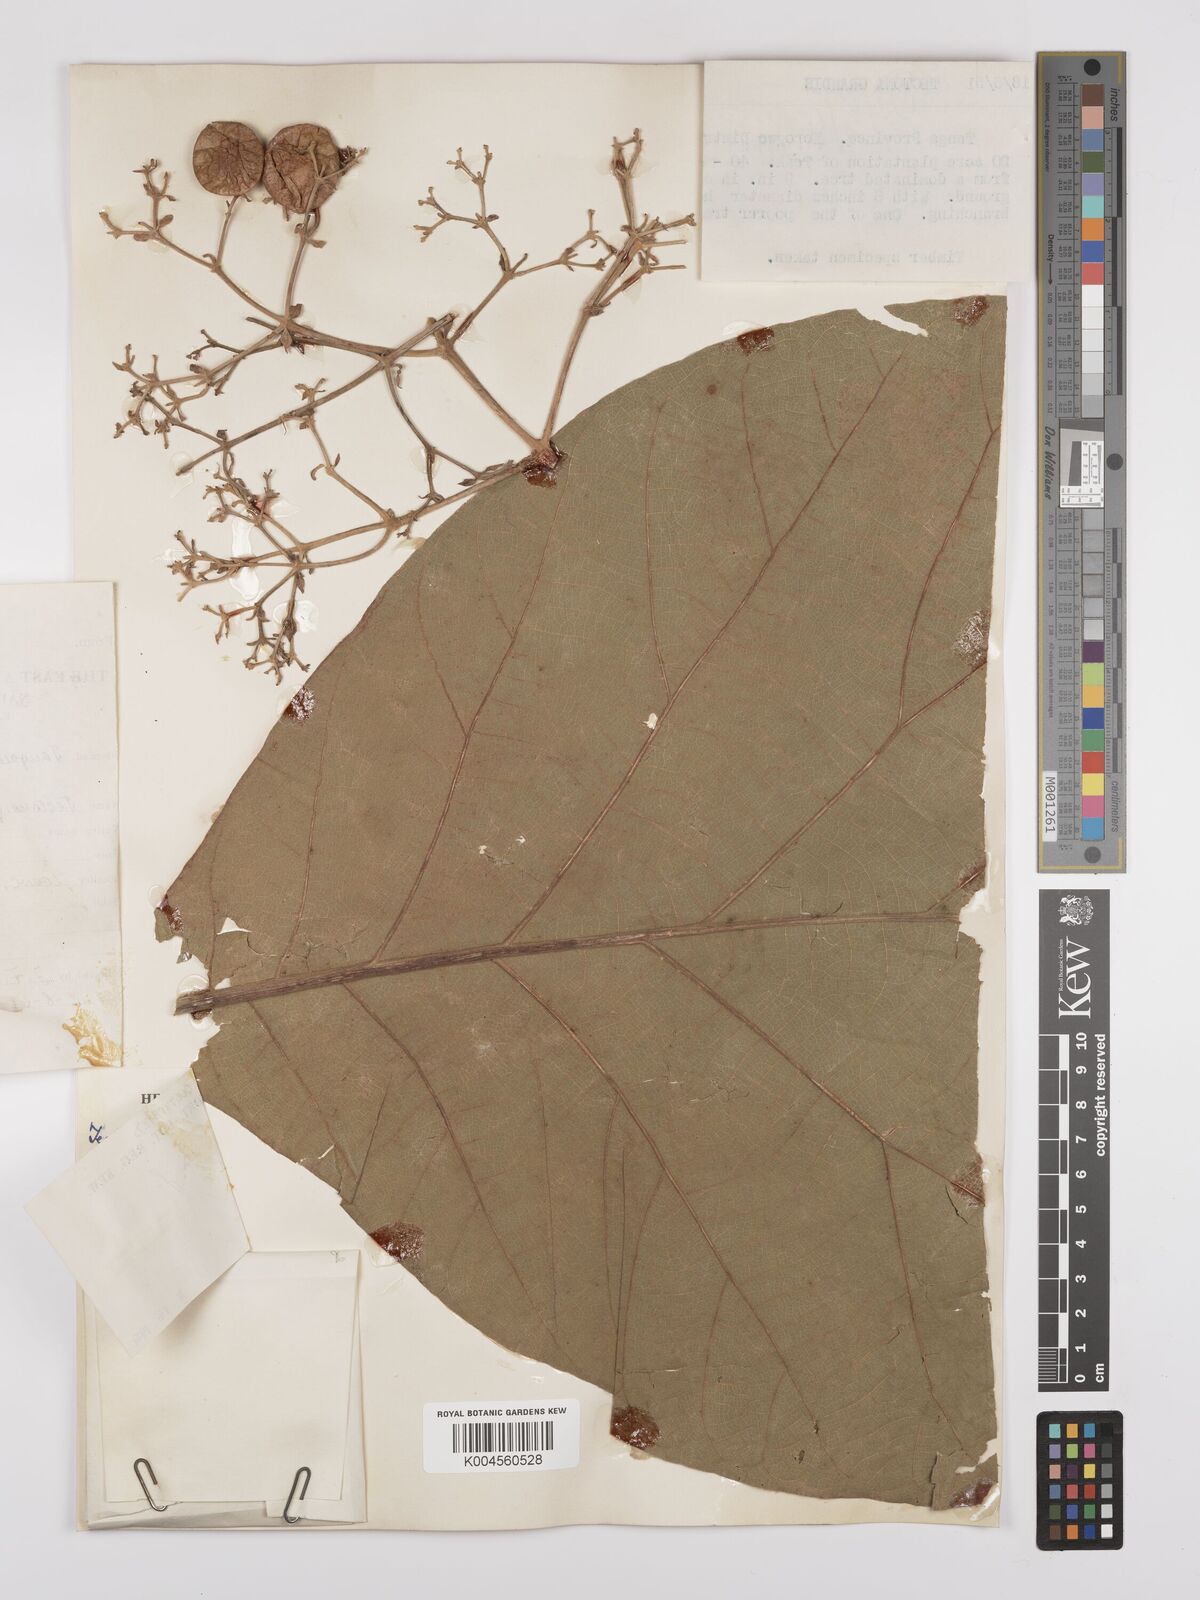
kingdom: Plantae
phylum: Tracheophyta
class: Magnoliopsida
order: Lamiales
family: Lamiaceae
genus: Tectona
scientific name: Tectona grandis
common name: Teak
